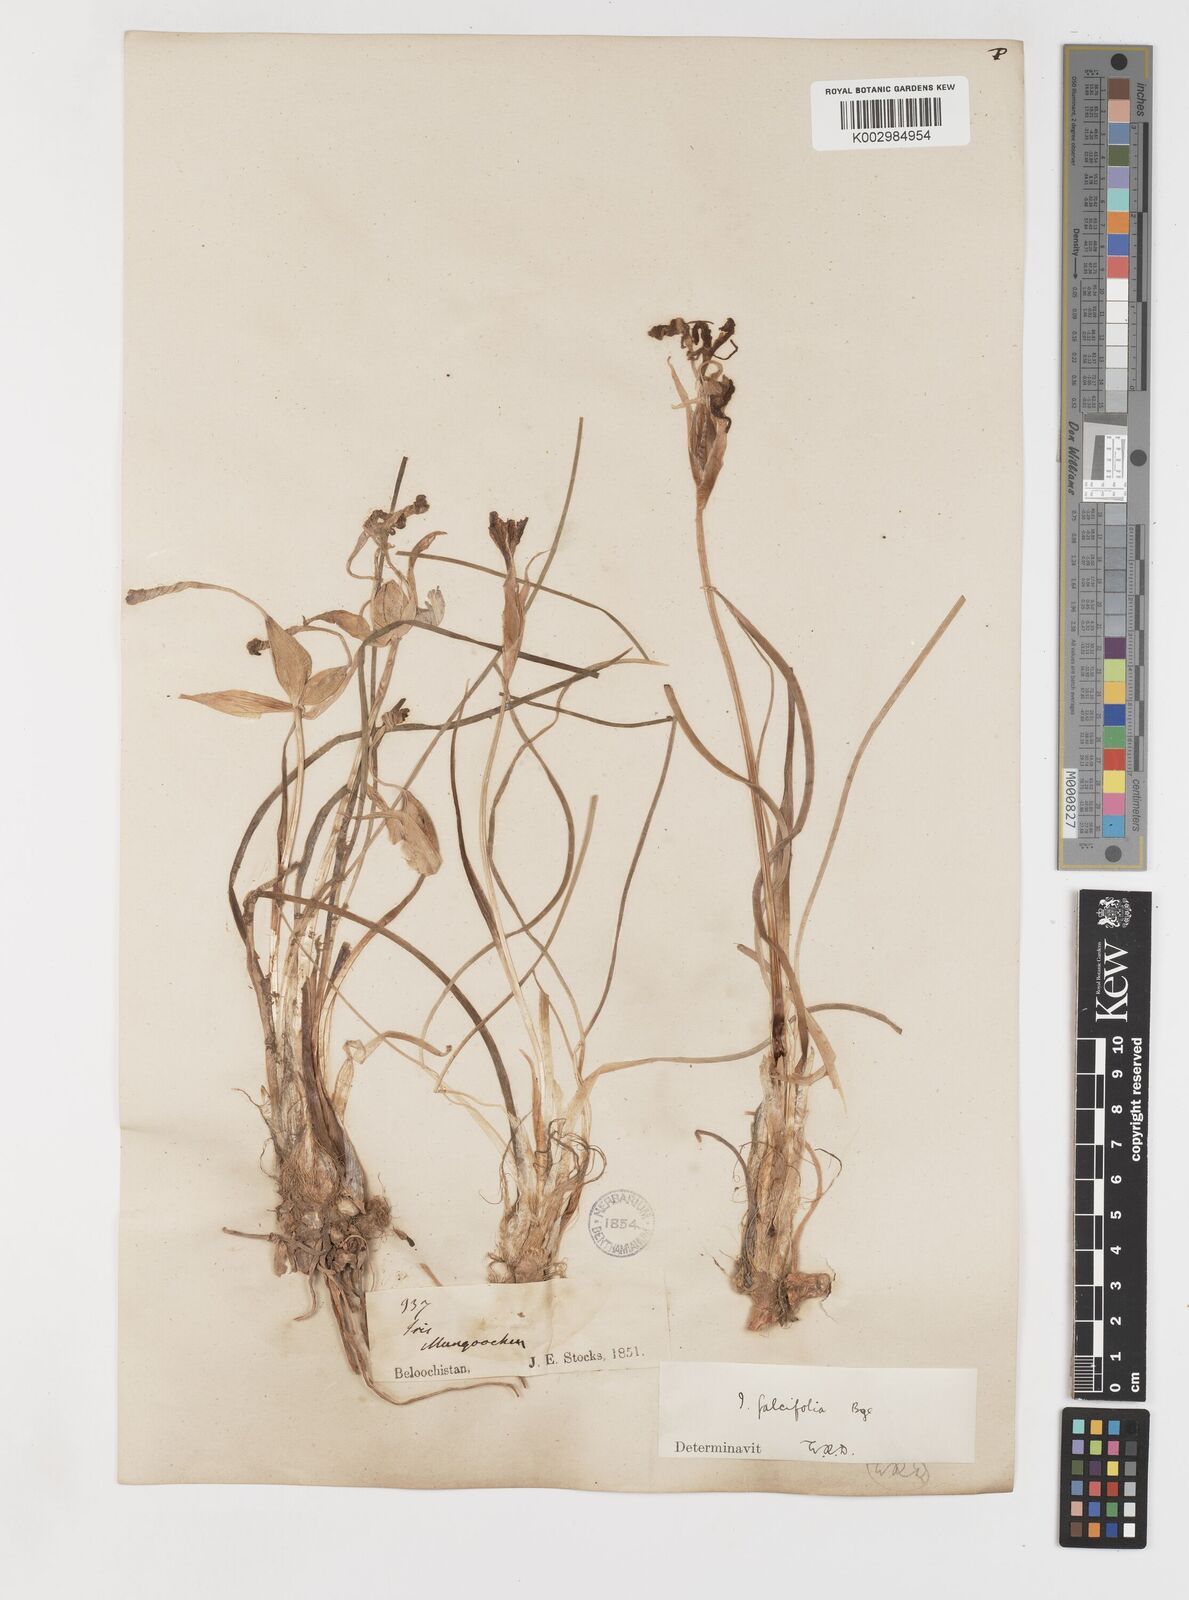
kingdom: Plantae
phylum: Tracheophyta
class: Liliopsida
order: Asparagales
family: Iridaceae
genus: Iris
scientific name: Iris longiscapa
